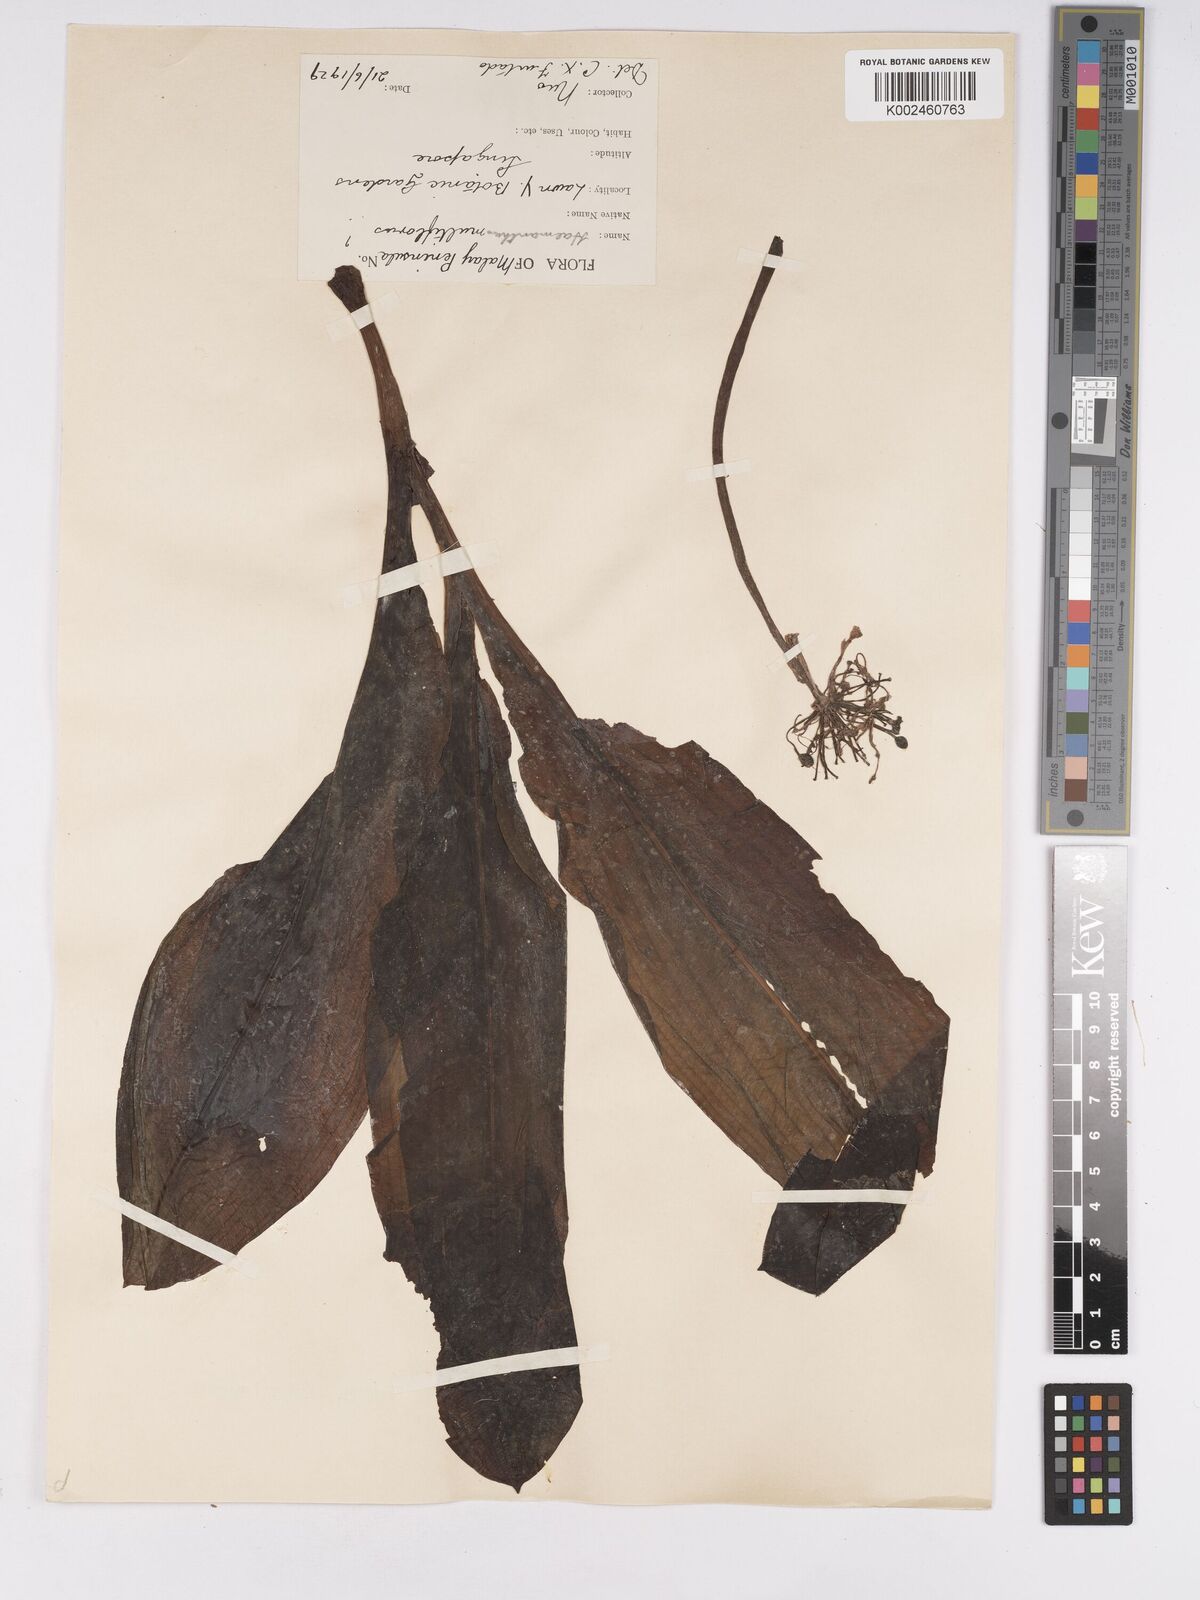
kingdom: Plantae
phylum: Tracheophyta
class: Liliopsida
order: Asparagales
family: Amaryllidaceae
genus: Scadoxus
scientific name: Scadoxus
